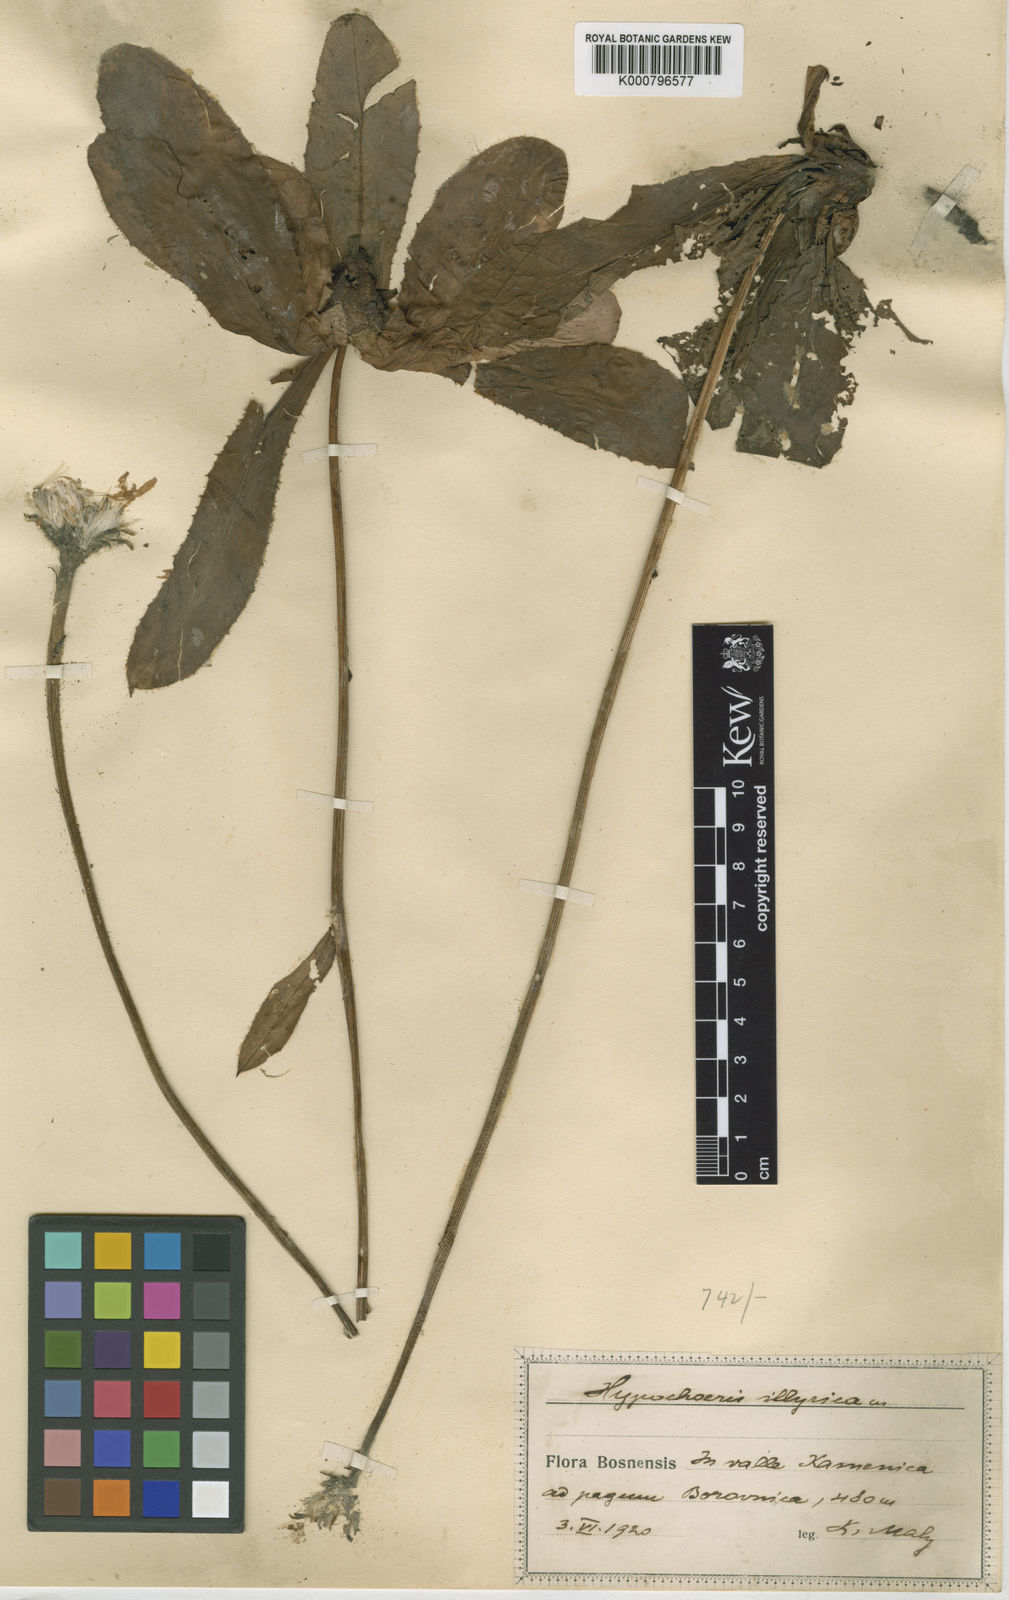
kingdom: Plantae
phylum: Tracheophyta
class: Magnoliopsida
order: Asterales
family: Asteraceae
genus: Hypochaeris
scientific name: Hypochaeris
